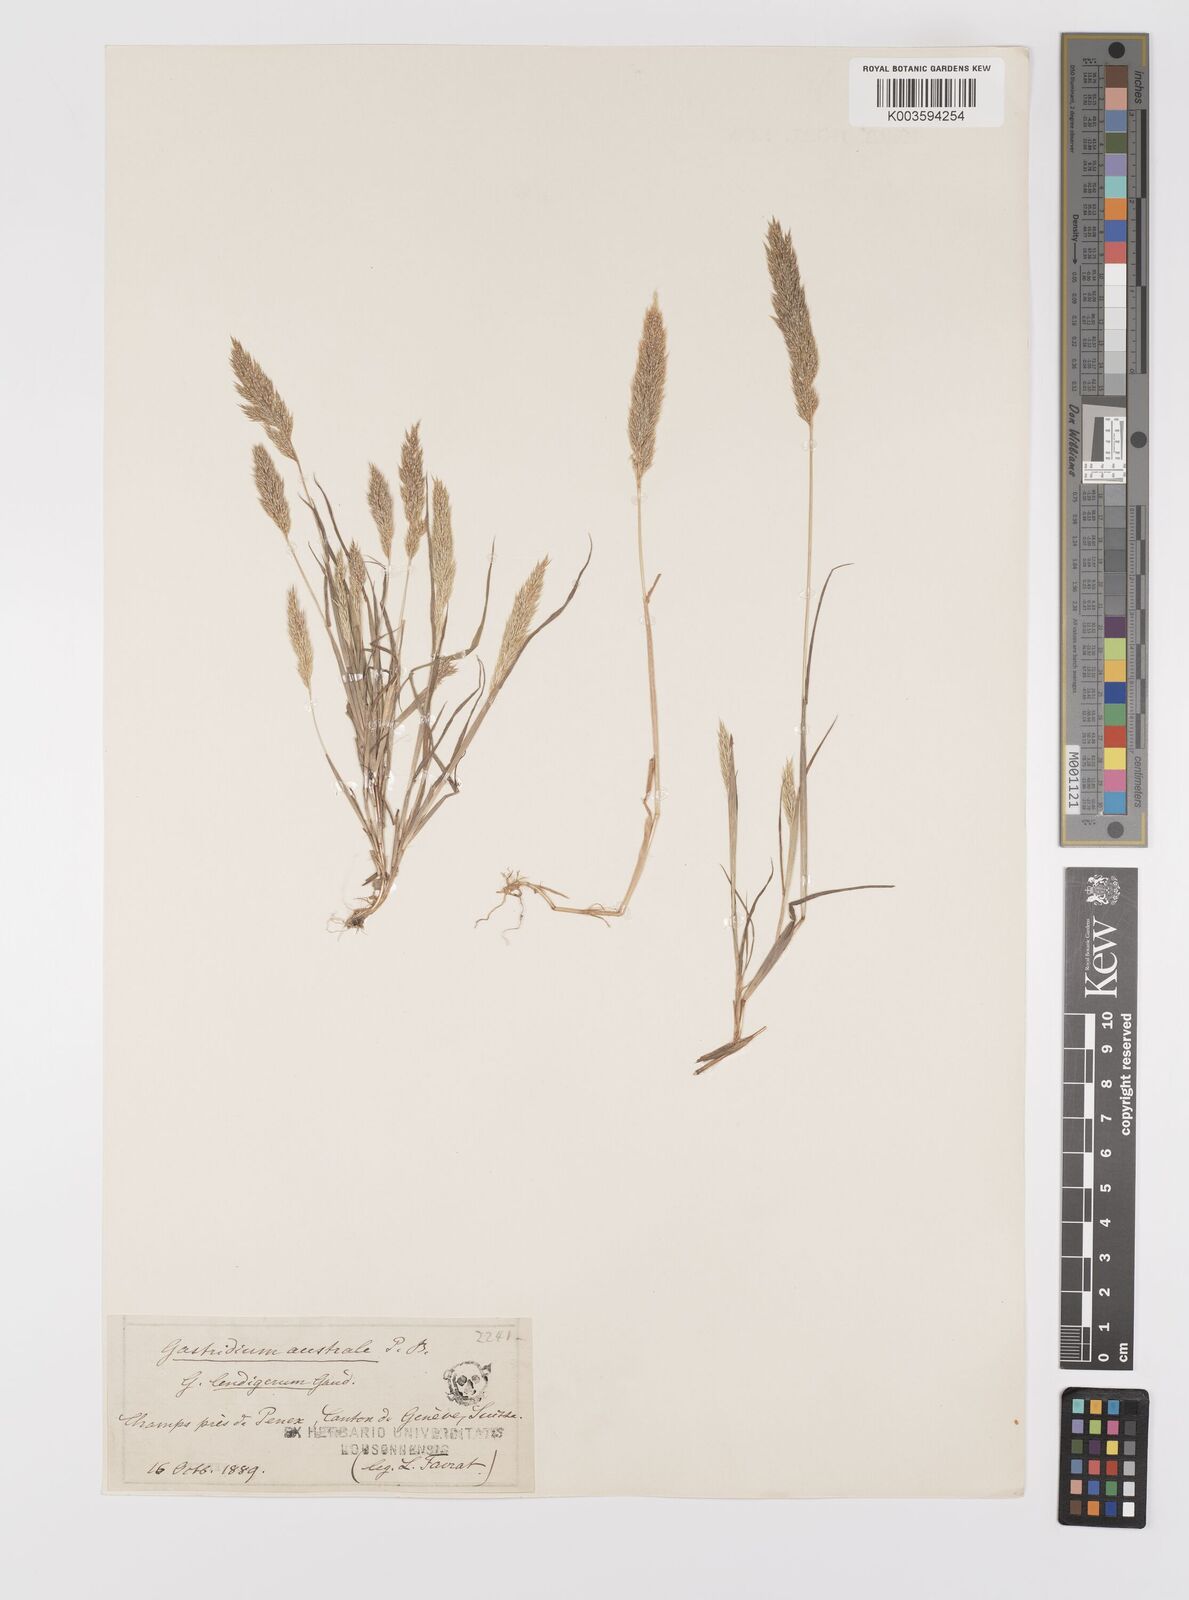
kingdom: Plantae
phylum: Tracheophyta
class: Liliopsida
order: Poales
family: Poaceae
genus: Gastridium
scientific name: Gastridium ventricosum
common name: Nit-grass
